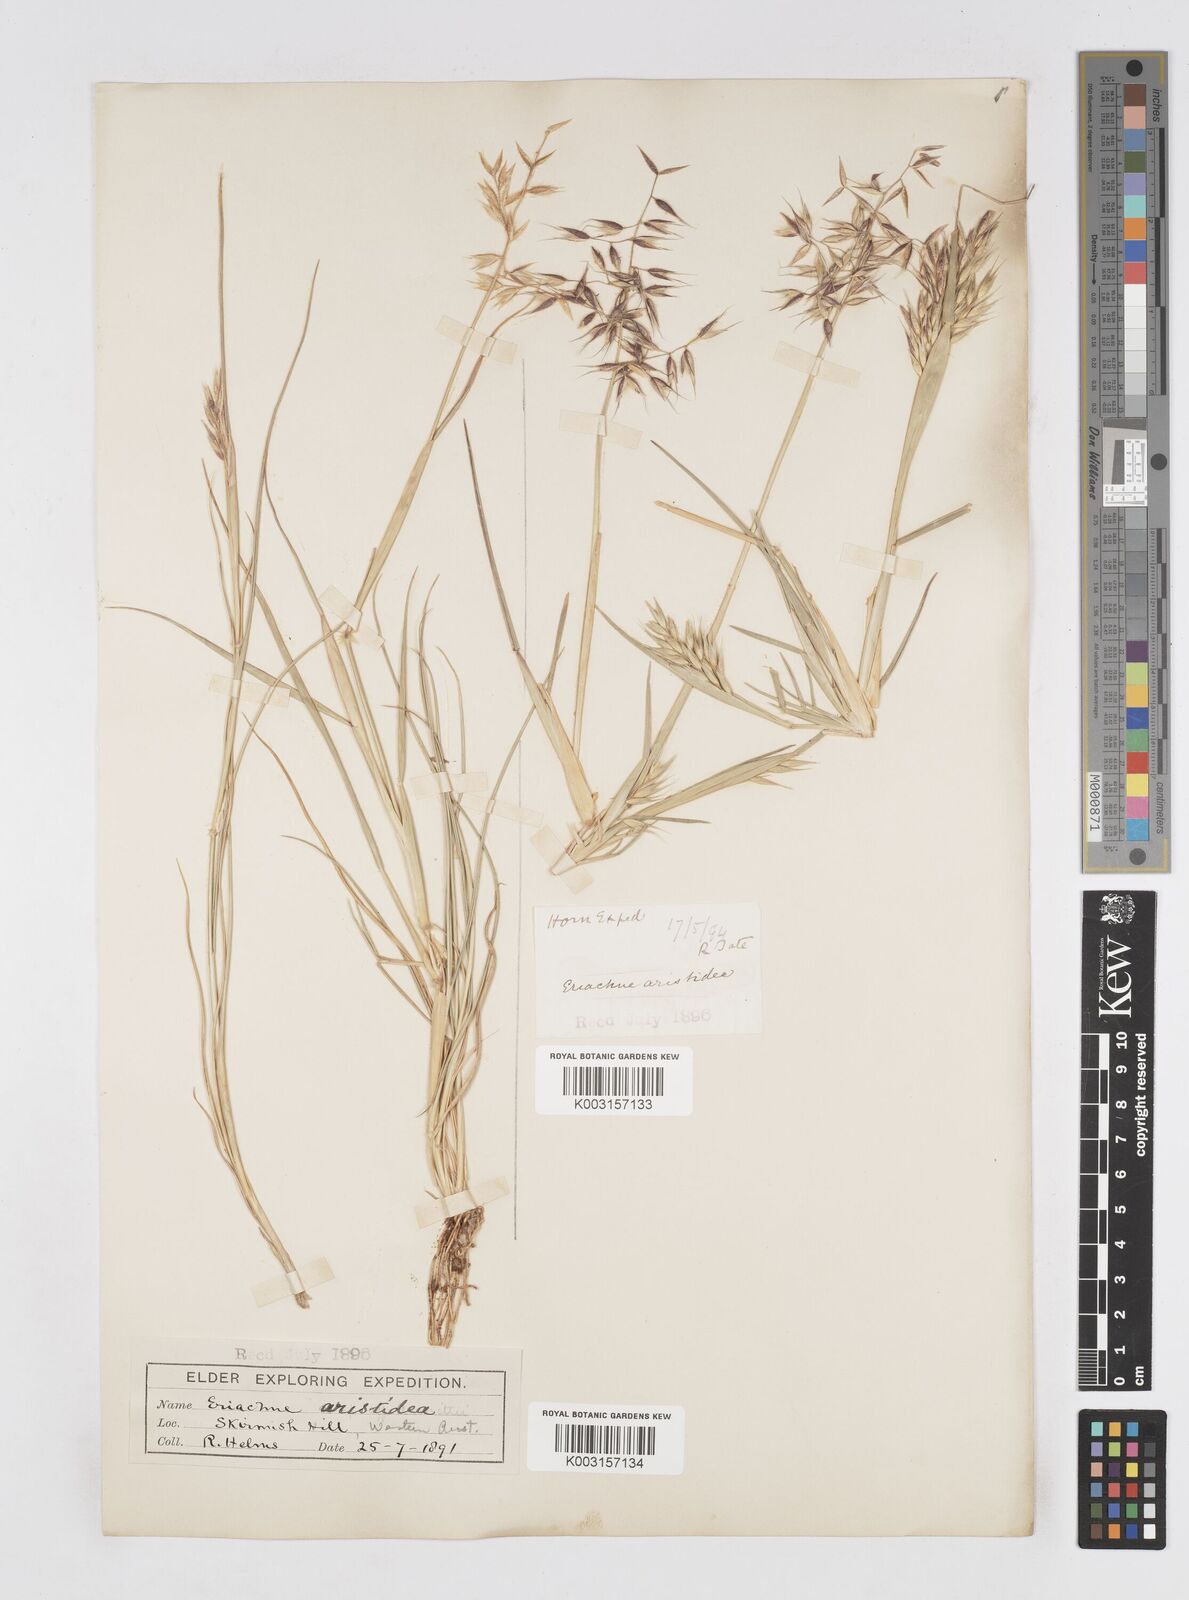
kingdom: Plantae
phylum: Tracheophyta
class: Liliopsida
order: Poales
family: Poaceae
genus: Eriachne
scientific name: Eriachne aristidea
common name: Three-awn wanderrie grass
